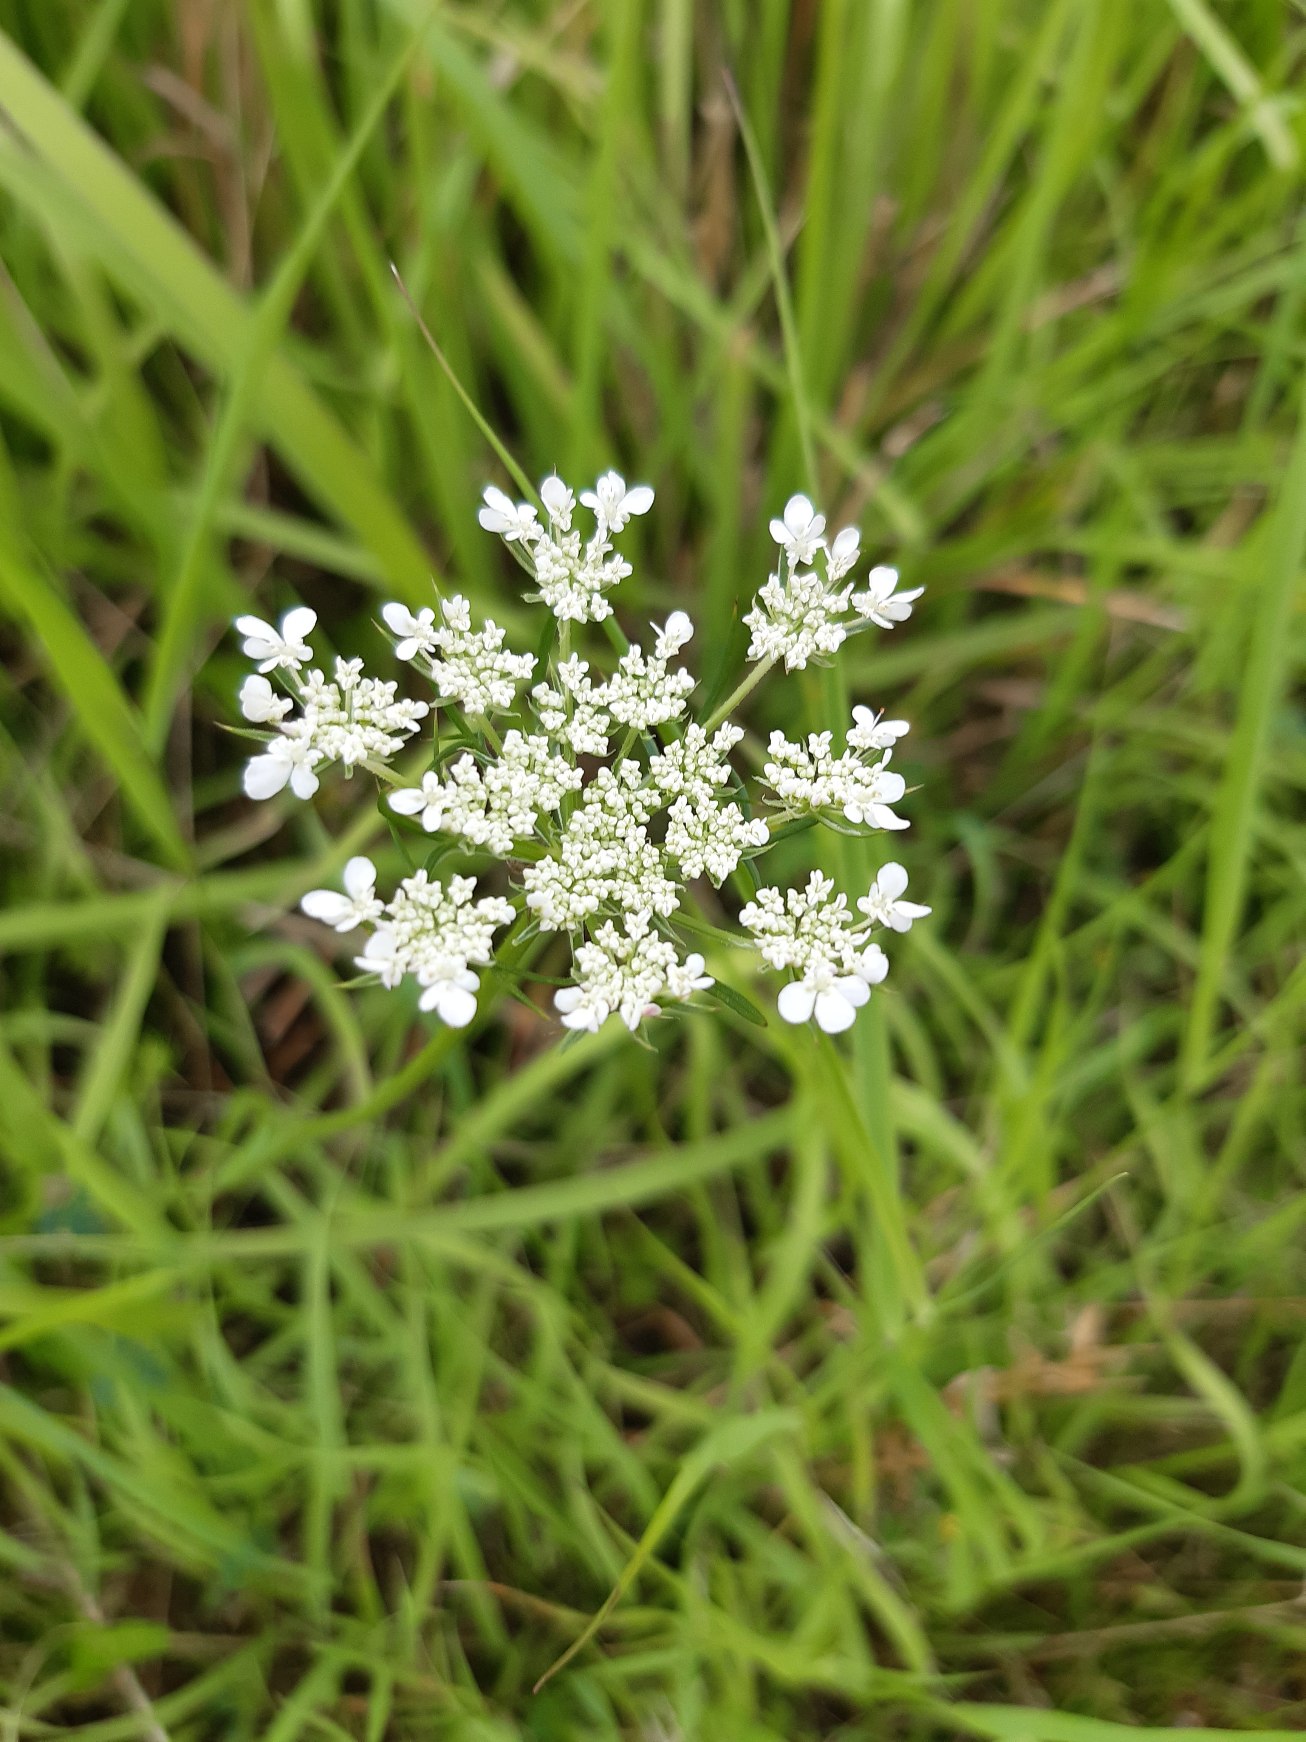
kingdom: Plantae
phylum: Tracheophyta
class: Magnoliopsida
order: Apiales
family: Apiaceae
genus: Daucus
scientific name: Daucus carota
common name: Vild gulerod
